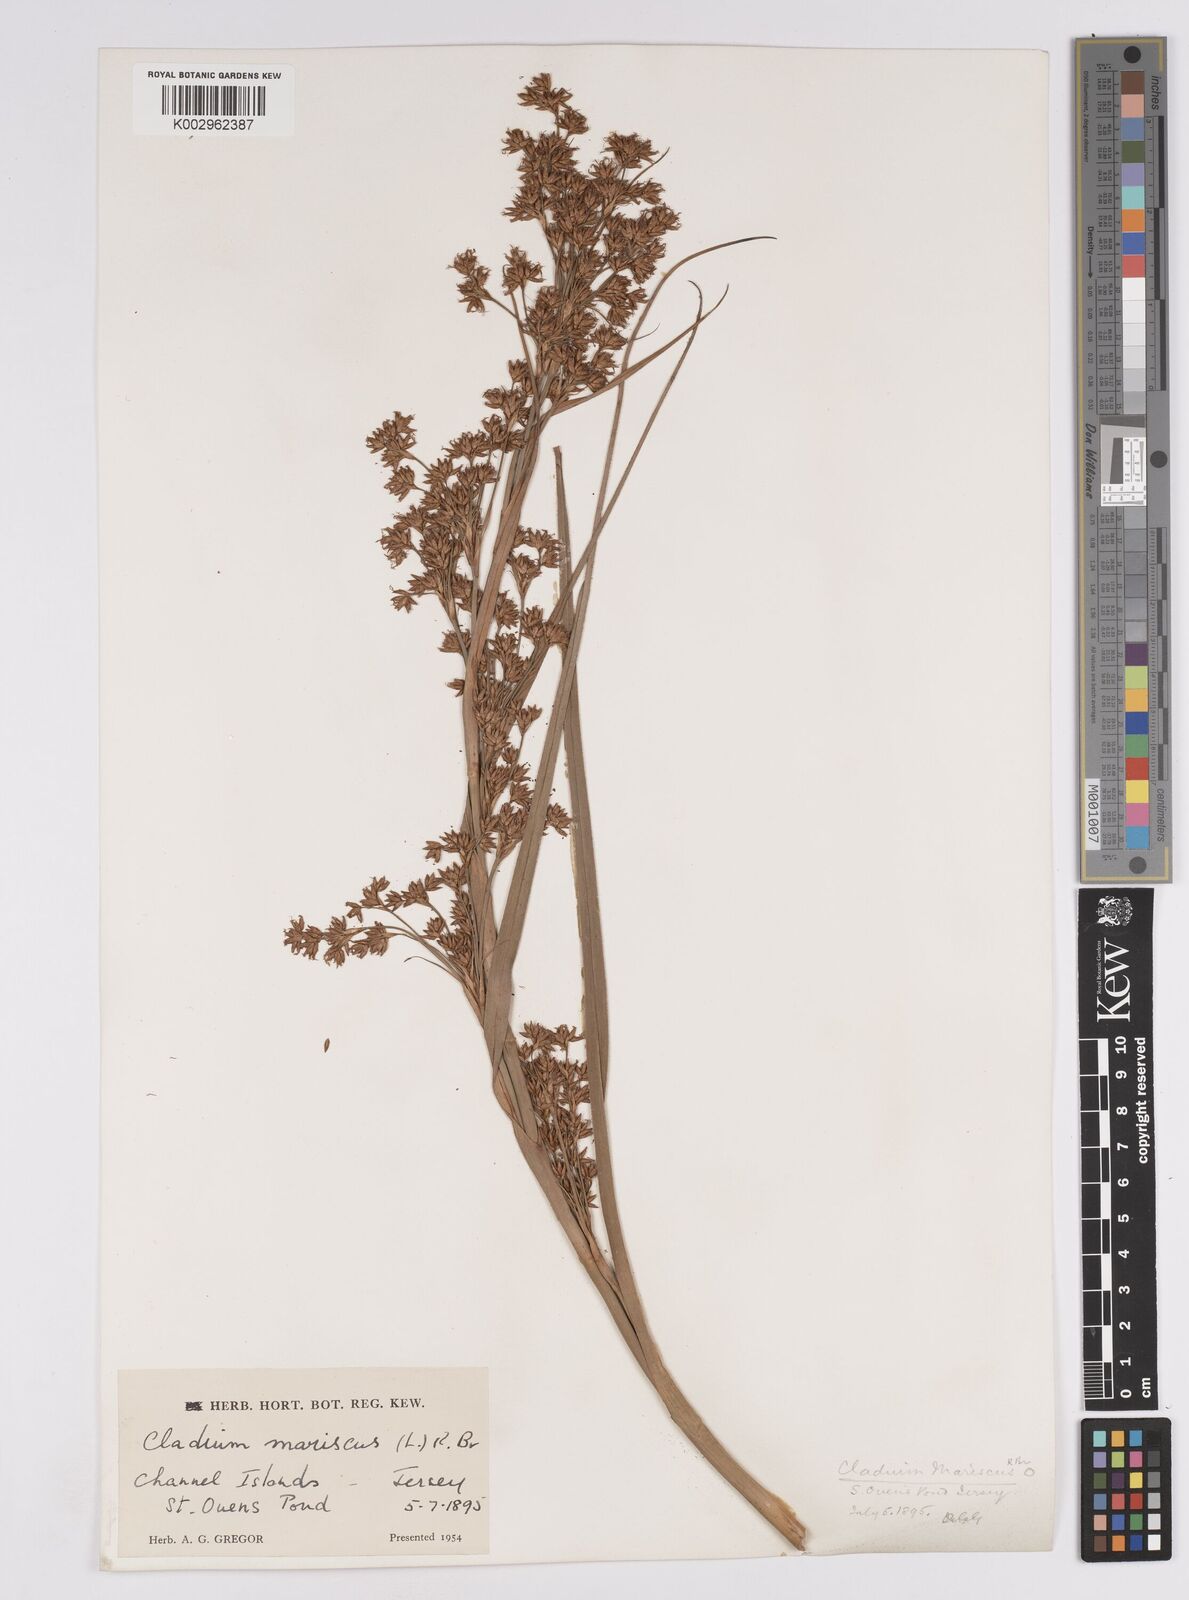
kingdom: Plantae
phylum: Tracheophyta
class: Liliopsida
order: Poales
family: Cyperaceae
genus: Cladium
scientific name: Cladium mariscus
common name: Great fen-sedge
